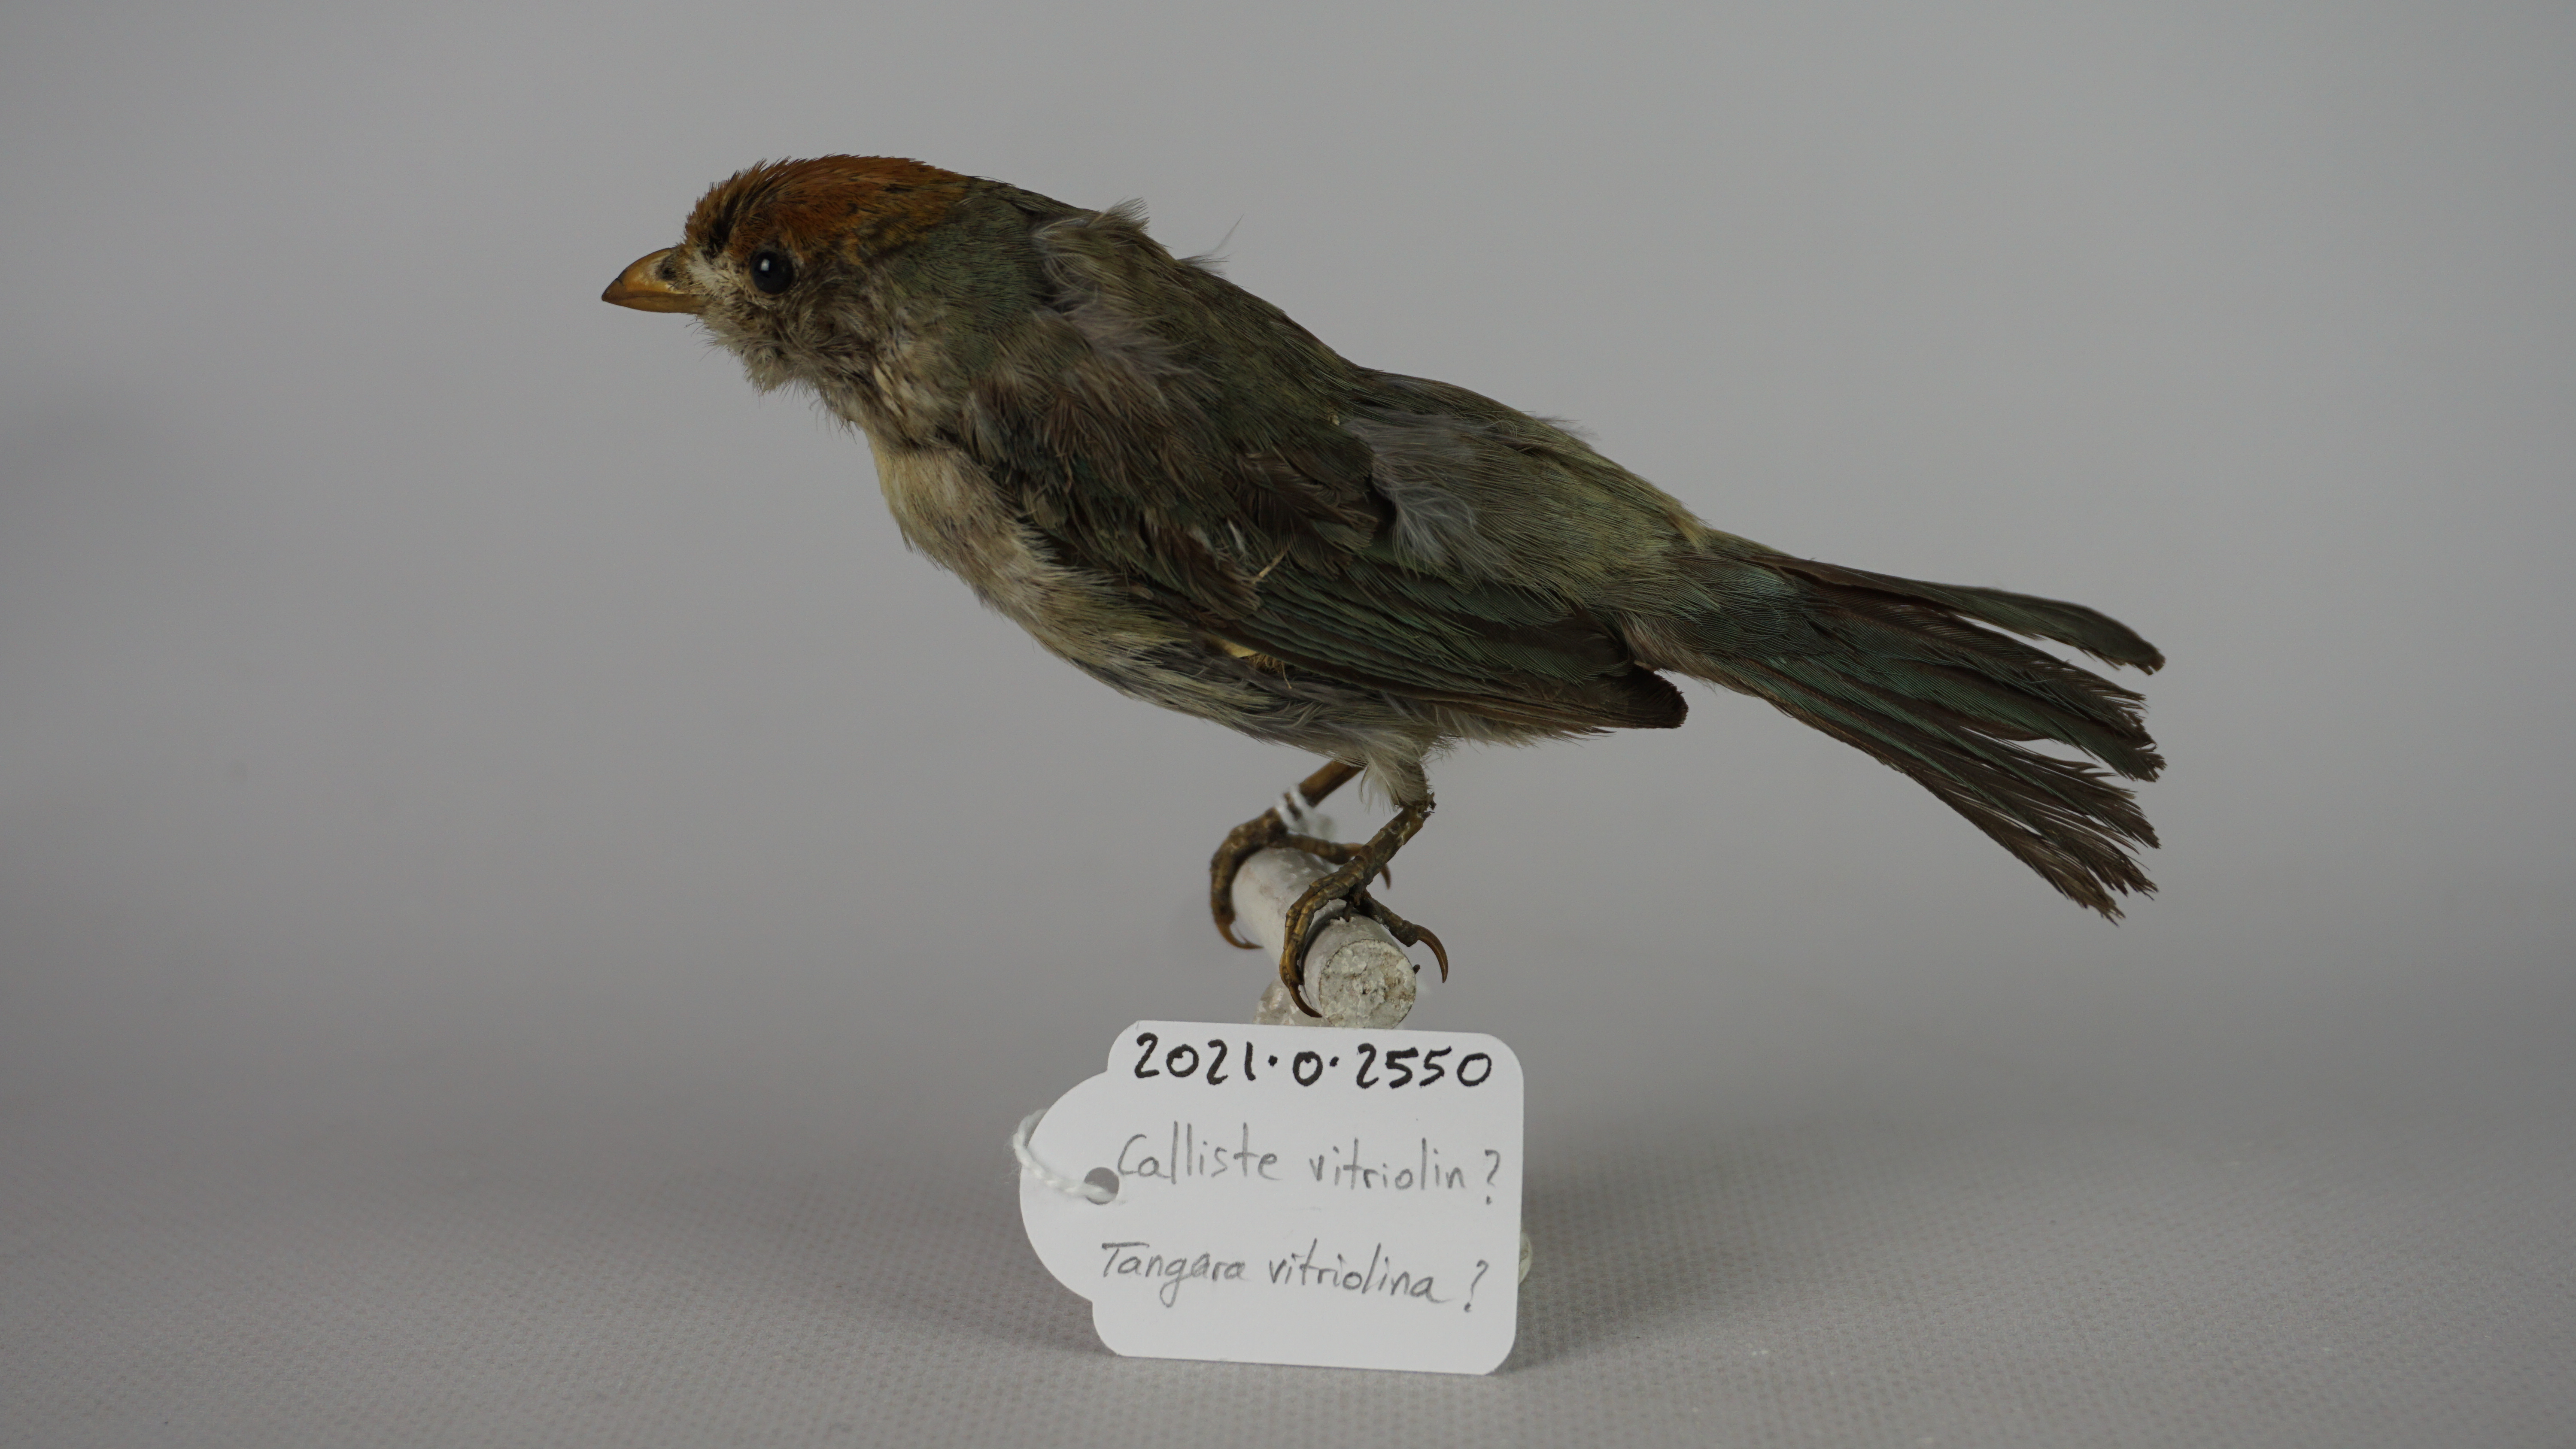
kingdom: Animalia
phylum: Chordata
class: Aves
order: Passeriformes
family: Thraupidae
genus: Stilpnia
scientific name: Stilpnia vitriolina
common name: Scrub tanager
